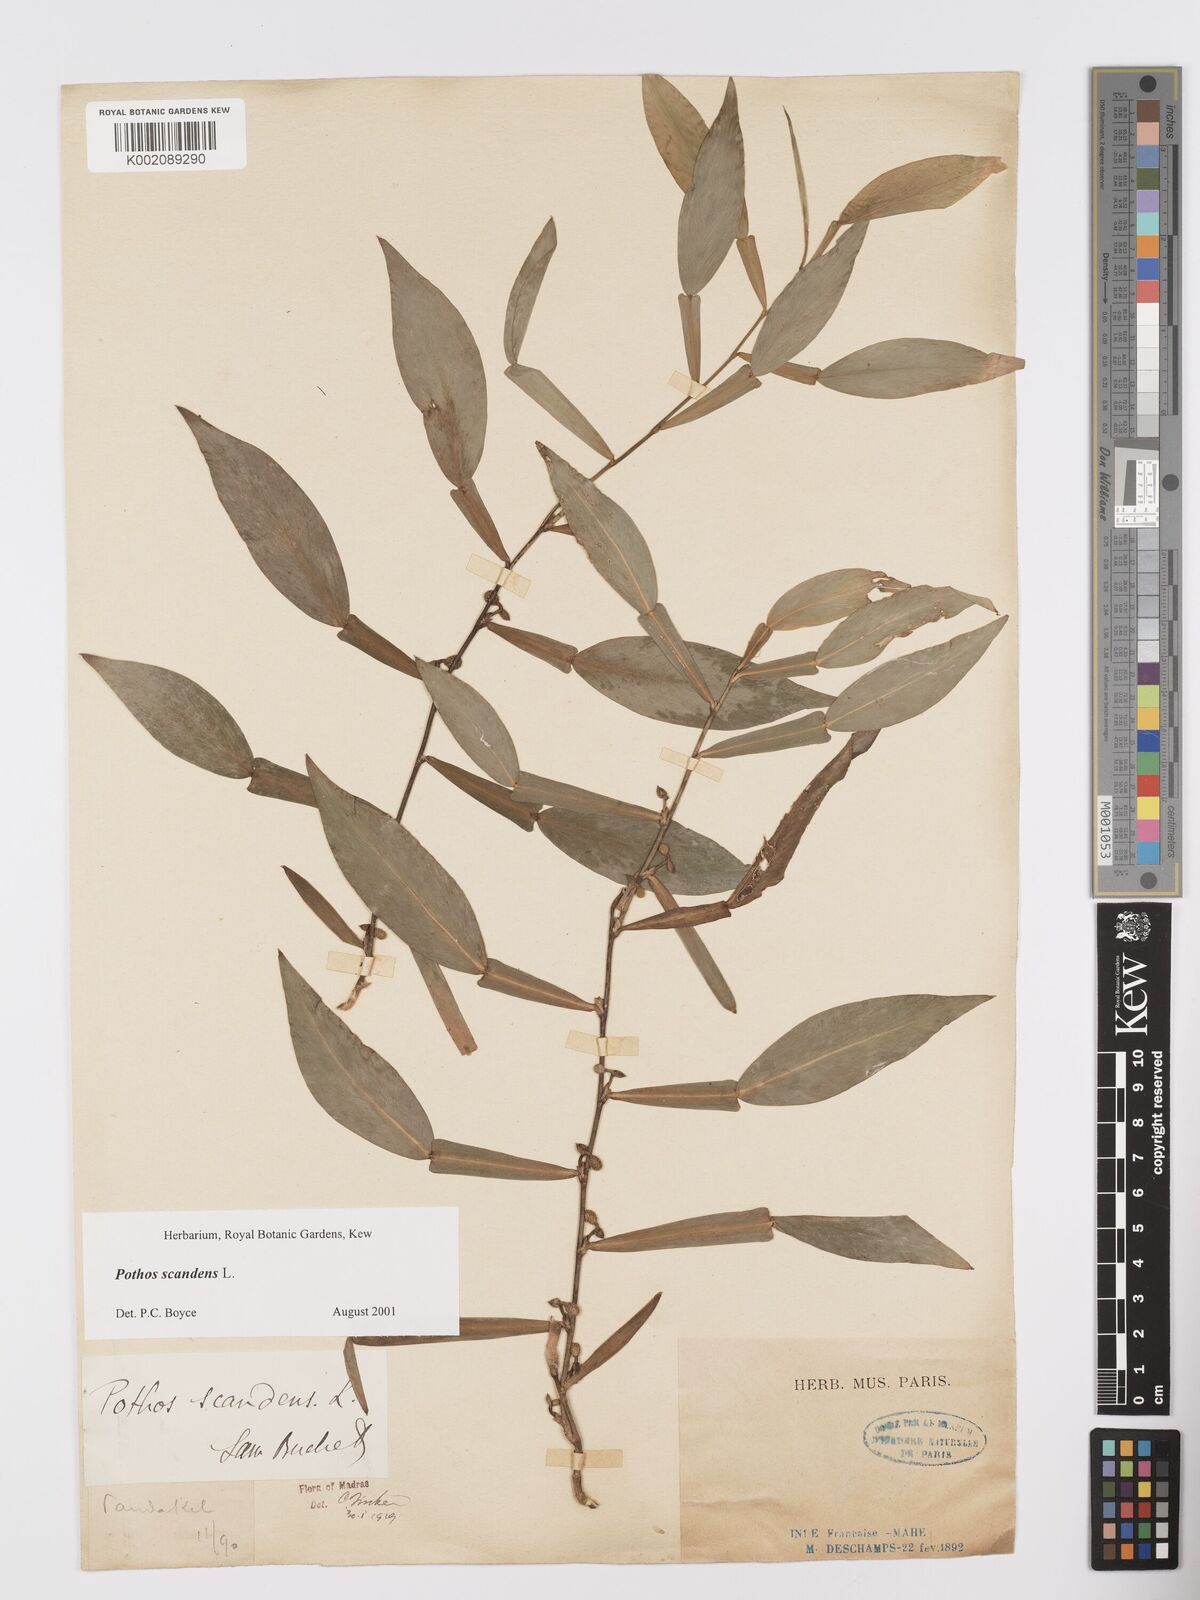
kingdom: Plantae
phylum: Tracheophyta
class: Liliopsida
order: Alismatales
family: Araceae
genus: Pothos
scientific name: Pothos scandens
